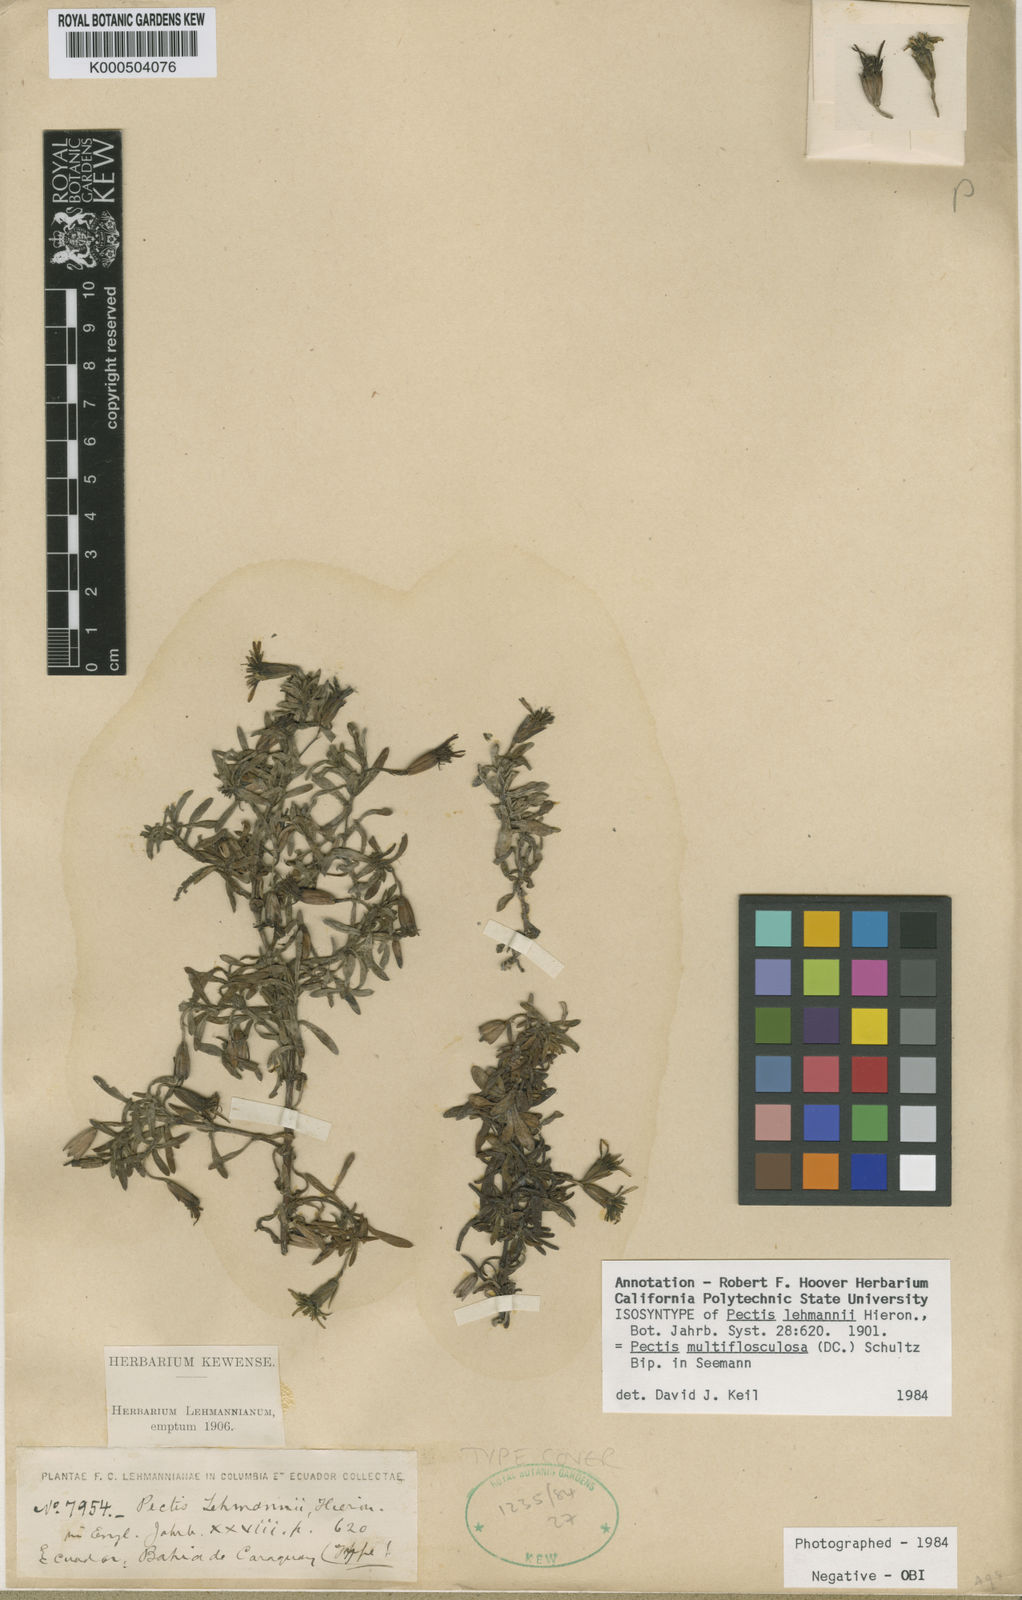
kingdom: Plantae
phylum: Tracheophyta
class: Magnoliopsida
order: Asterales
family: Asteraceae
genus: Pectis
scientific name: Pectis multiflosculosa
